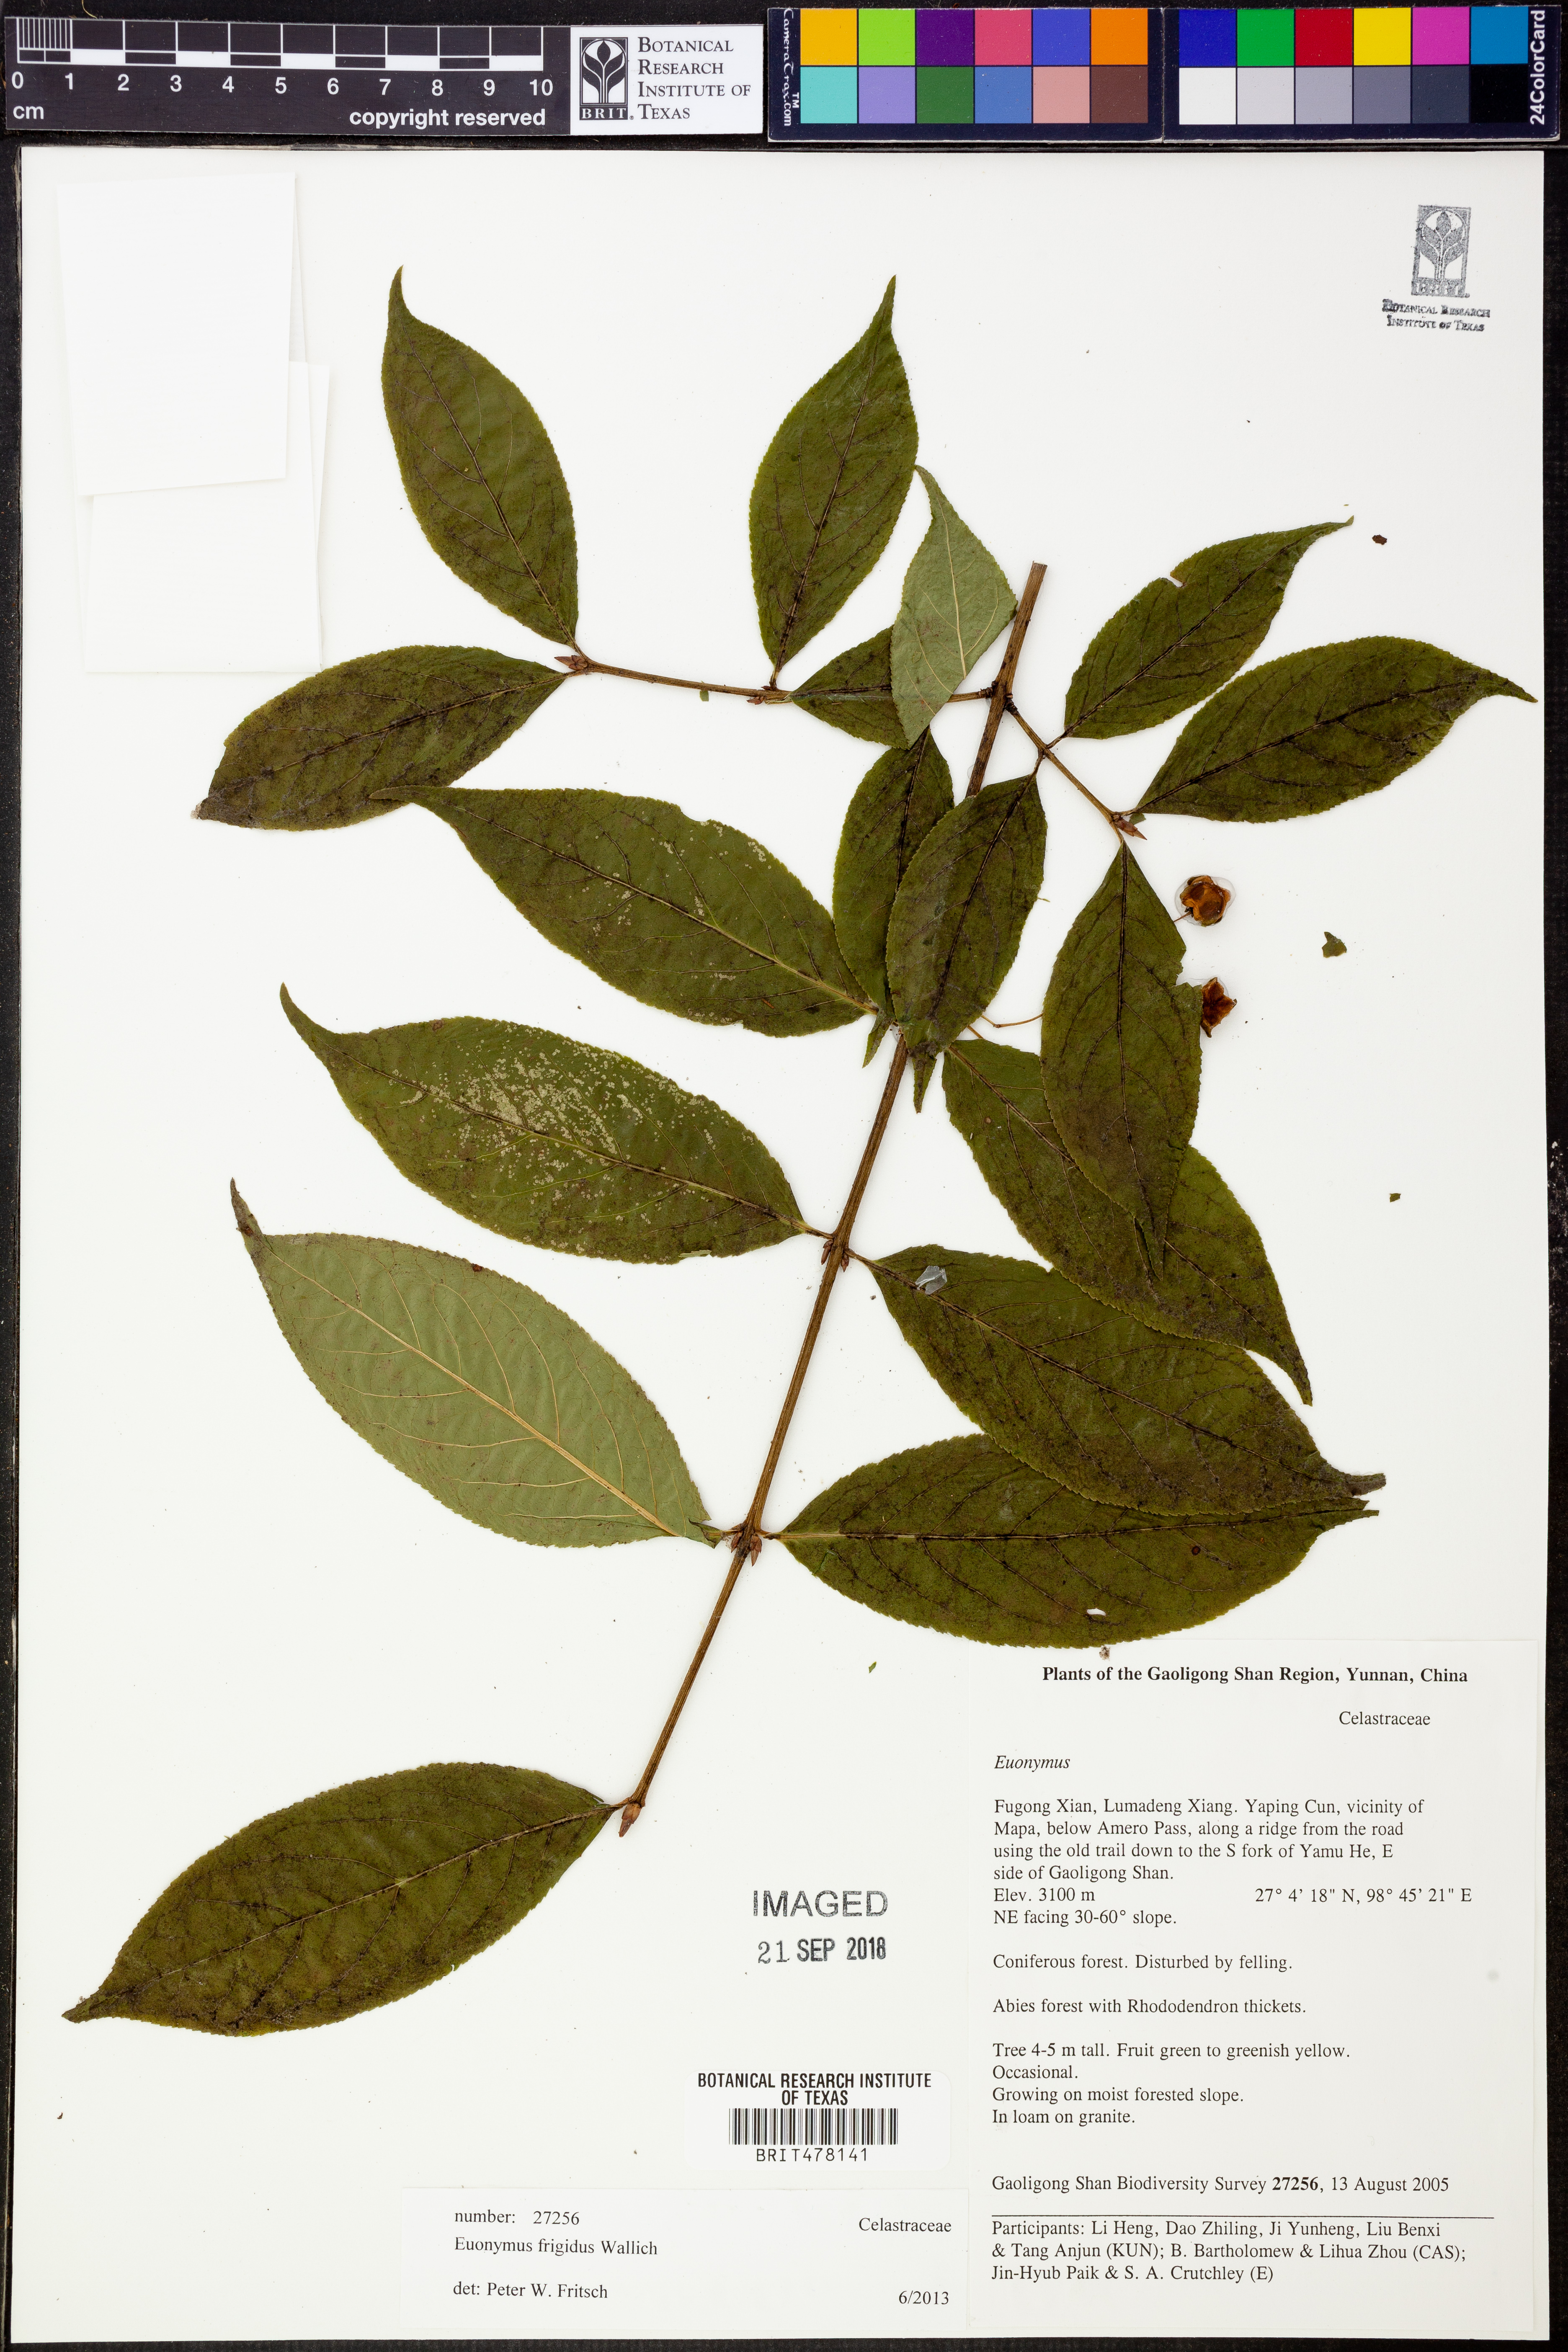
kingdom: Plantae
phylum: Tracheophyta
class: Magnoliopsida
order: Celastrales
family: Celastraceae
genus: Euonymus
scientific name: Euonymus frigidus
